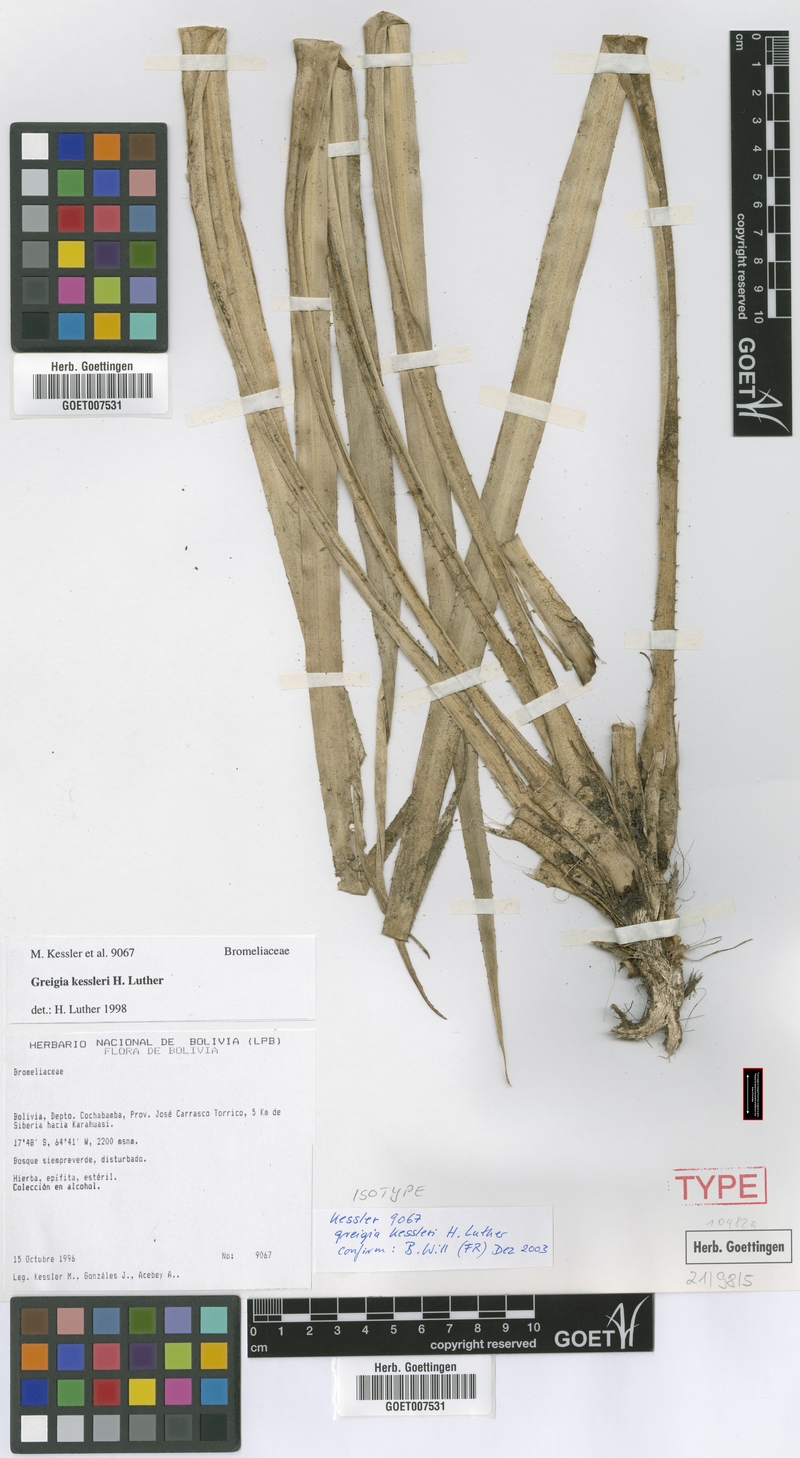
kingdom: Plantae
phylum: Tracheophyta
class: Liliopsida
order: Poales
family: Bromeliaceae
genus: Greigia
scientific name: Greigia kessleri
